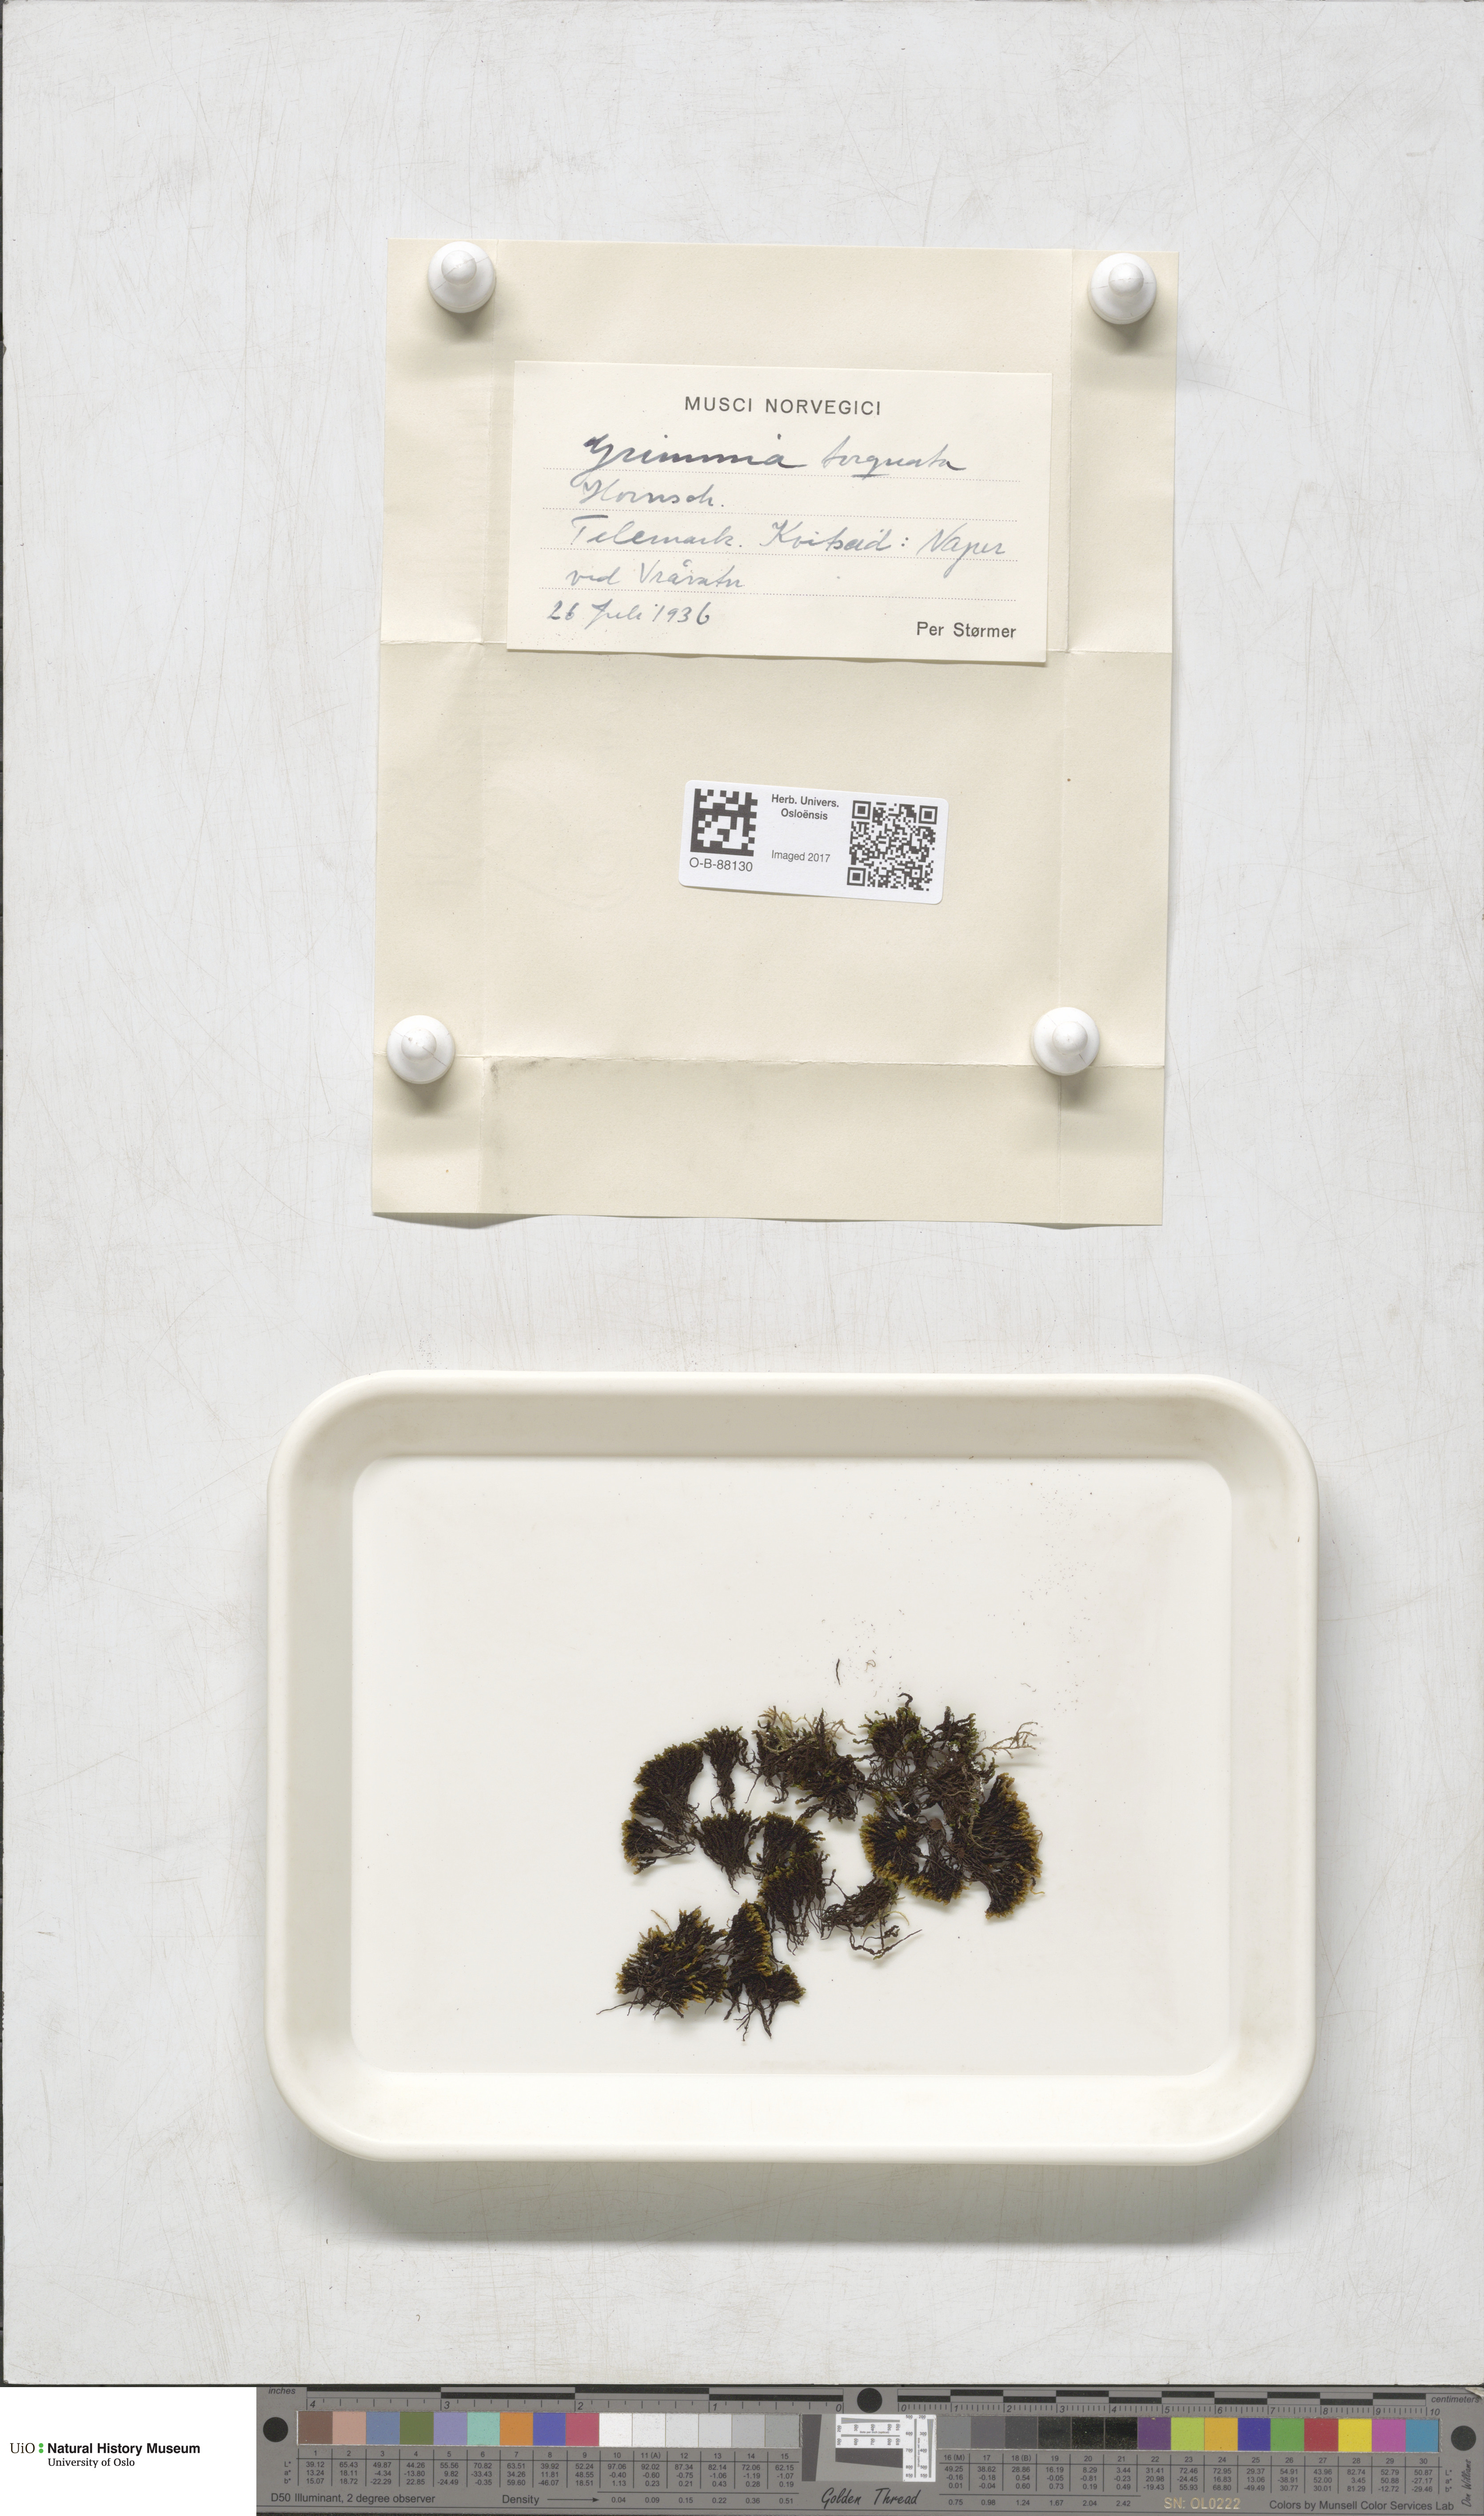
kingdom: Plantae
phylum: Bryophyta
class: Bryopsida
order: Grimmiales
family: Grimmiaceae
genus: Grimmia
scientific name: Grimmia torquata
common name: Twisted grimmia
